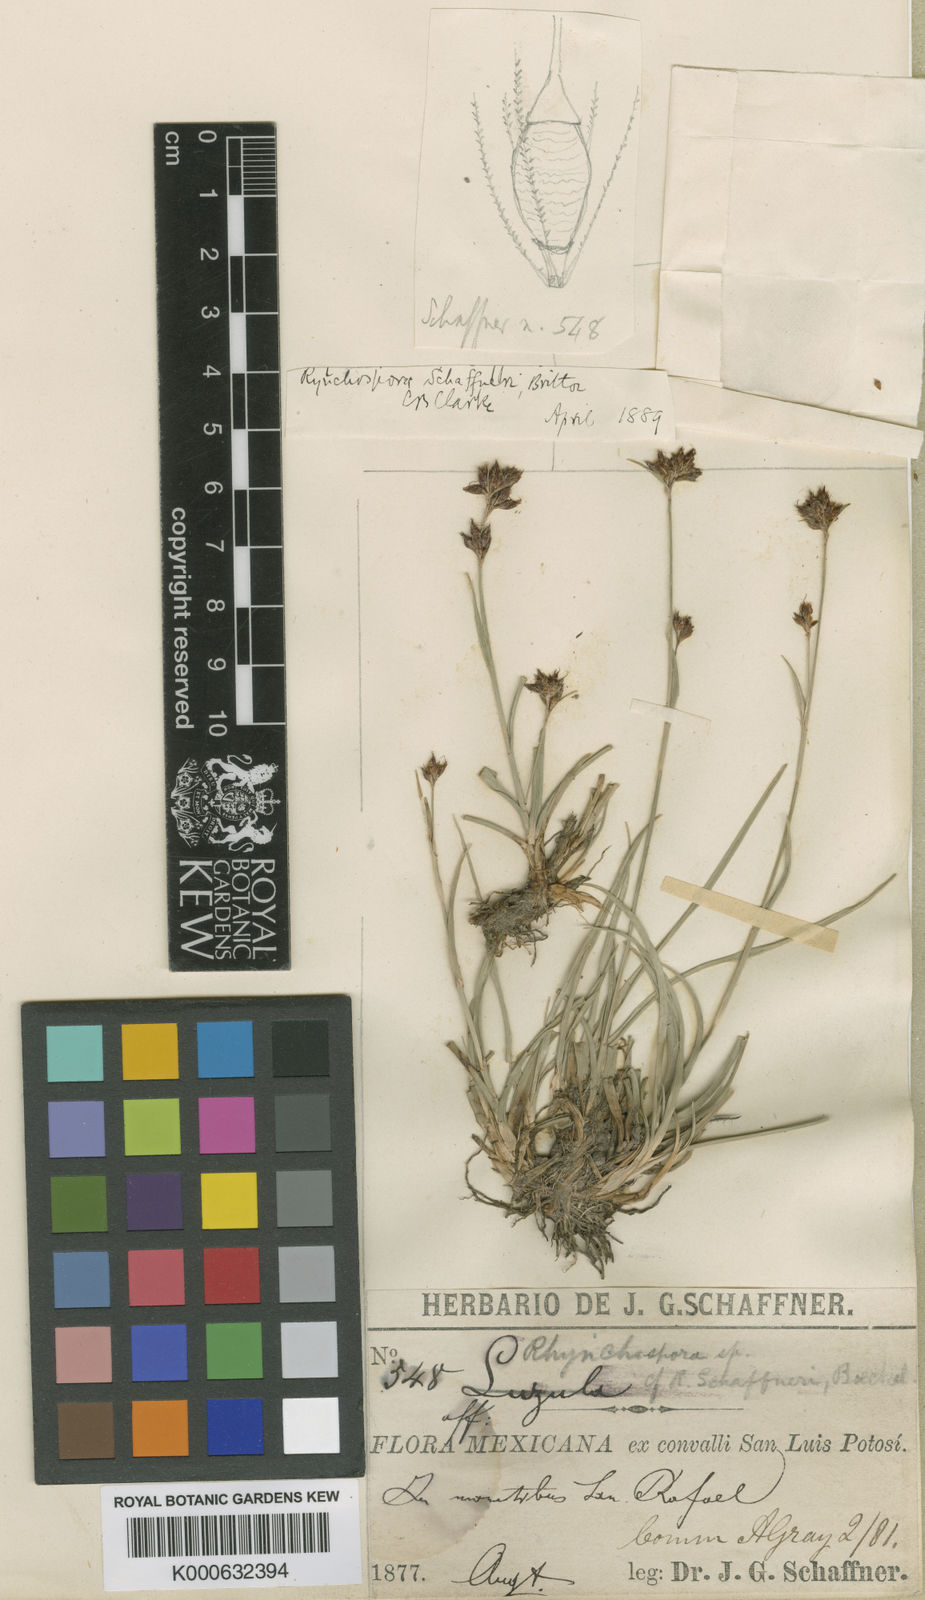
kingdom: Plantae
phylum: Tracheophyta
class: Liliopsida
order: Poales
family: Cyperaceae
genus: Rhynchospora
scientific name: Rhynchospora
